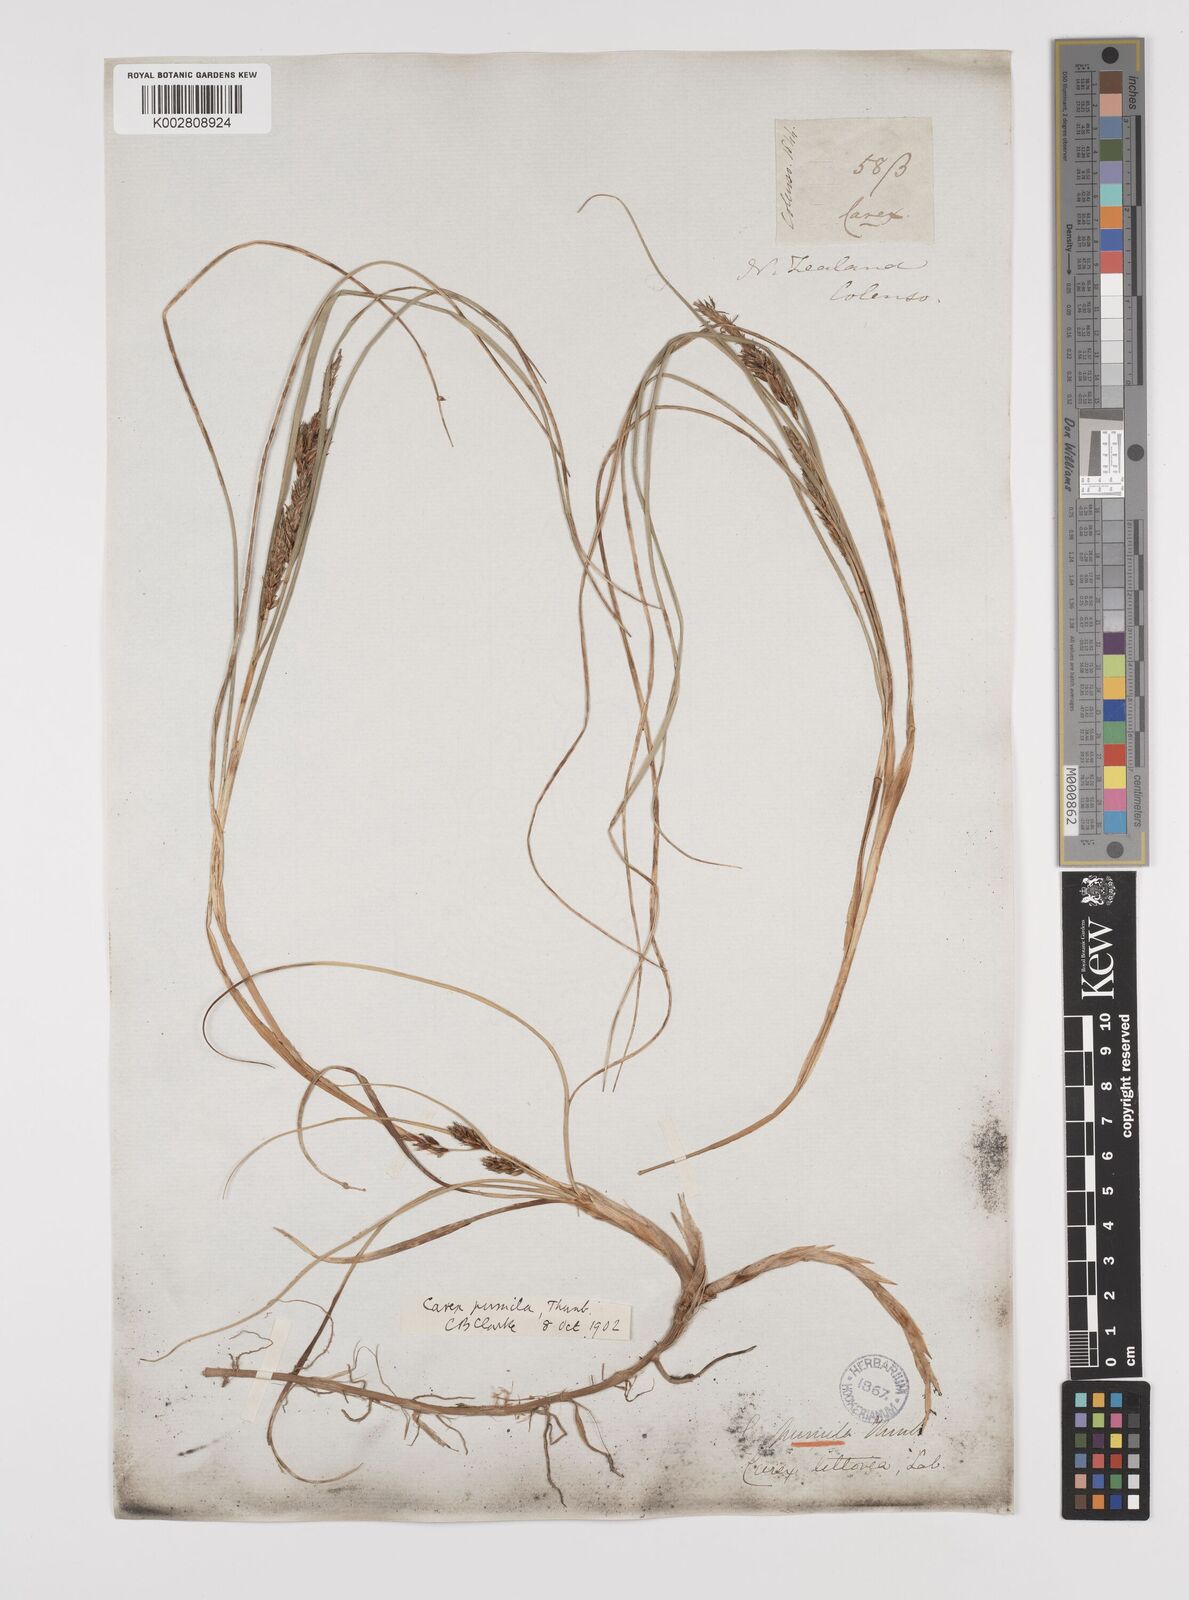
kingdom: Plantae
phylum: Tracheophyta
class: Liliopsida
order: Poales
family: Cyperaceae
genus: Carex
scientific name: Carex pumila
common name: Dwarf sedge
